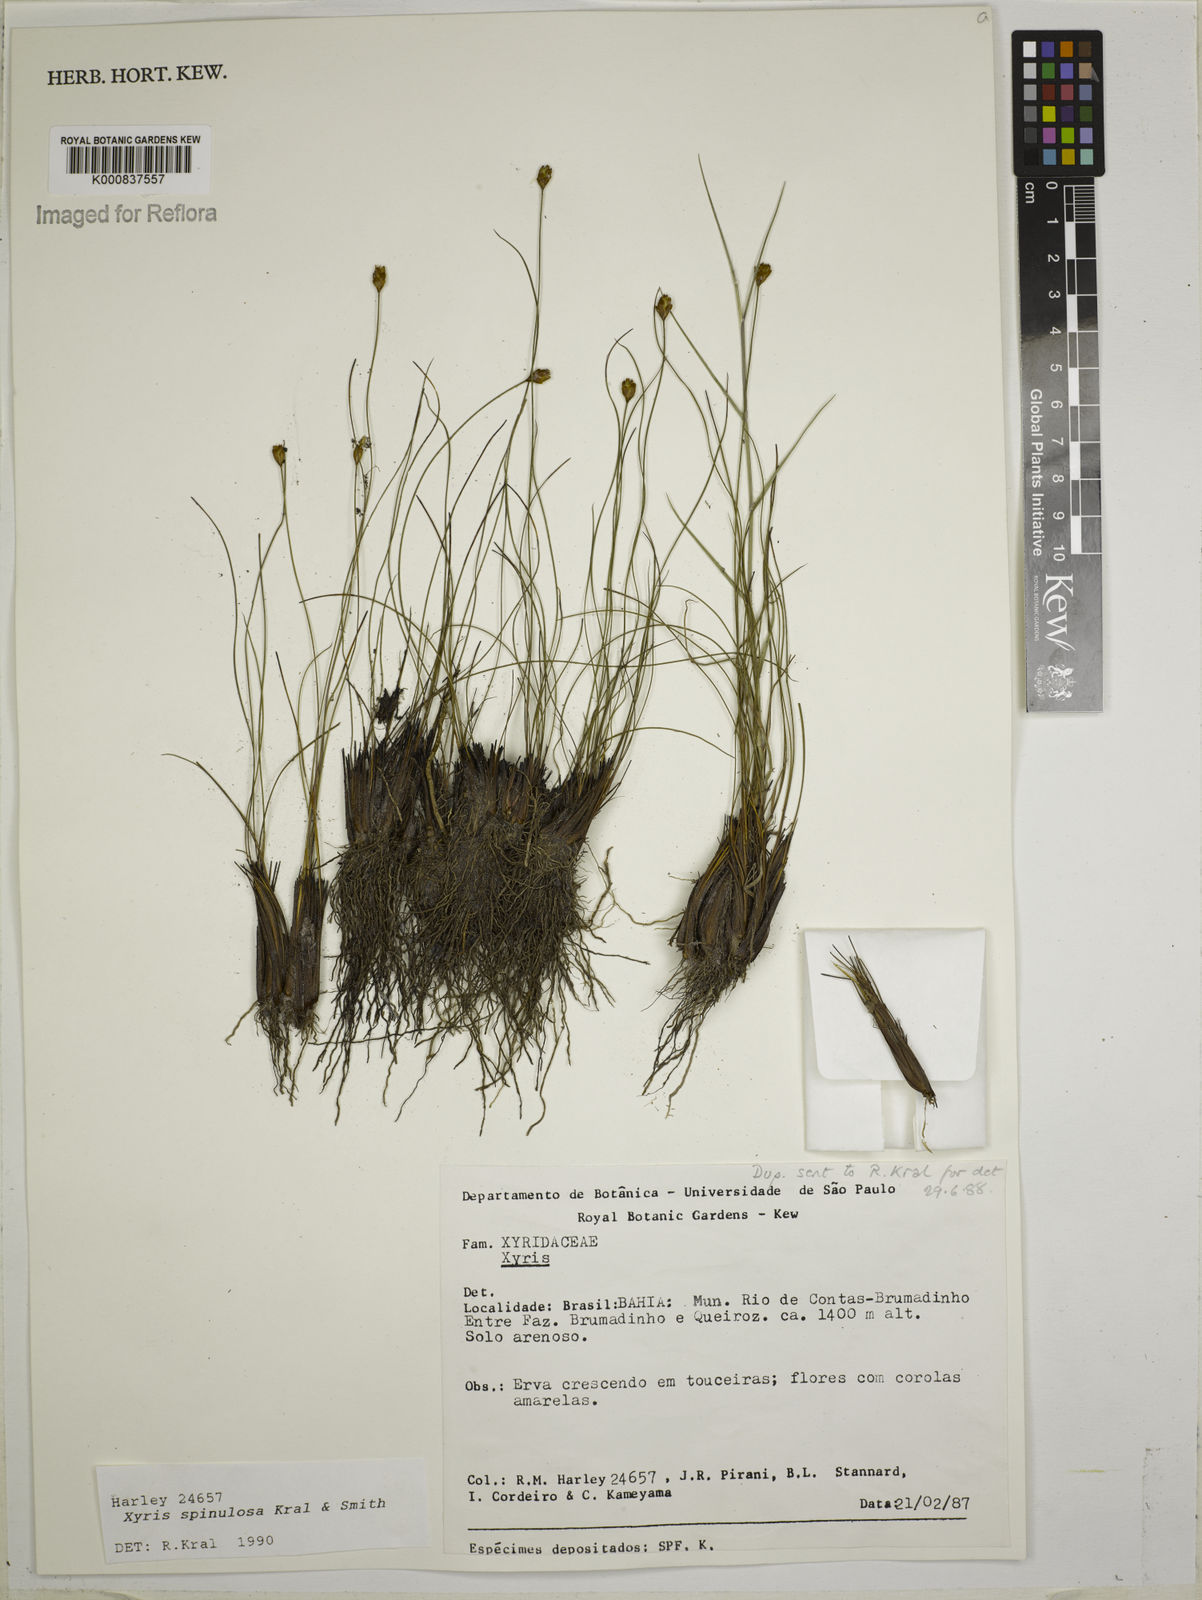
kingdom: Plantae
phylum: Tracheophyta
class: Liliopsida
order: Poales
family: Xyridaceae
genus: Xyris
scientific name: Xyris spinulosa
